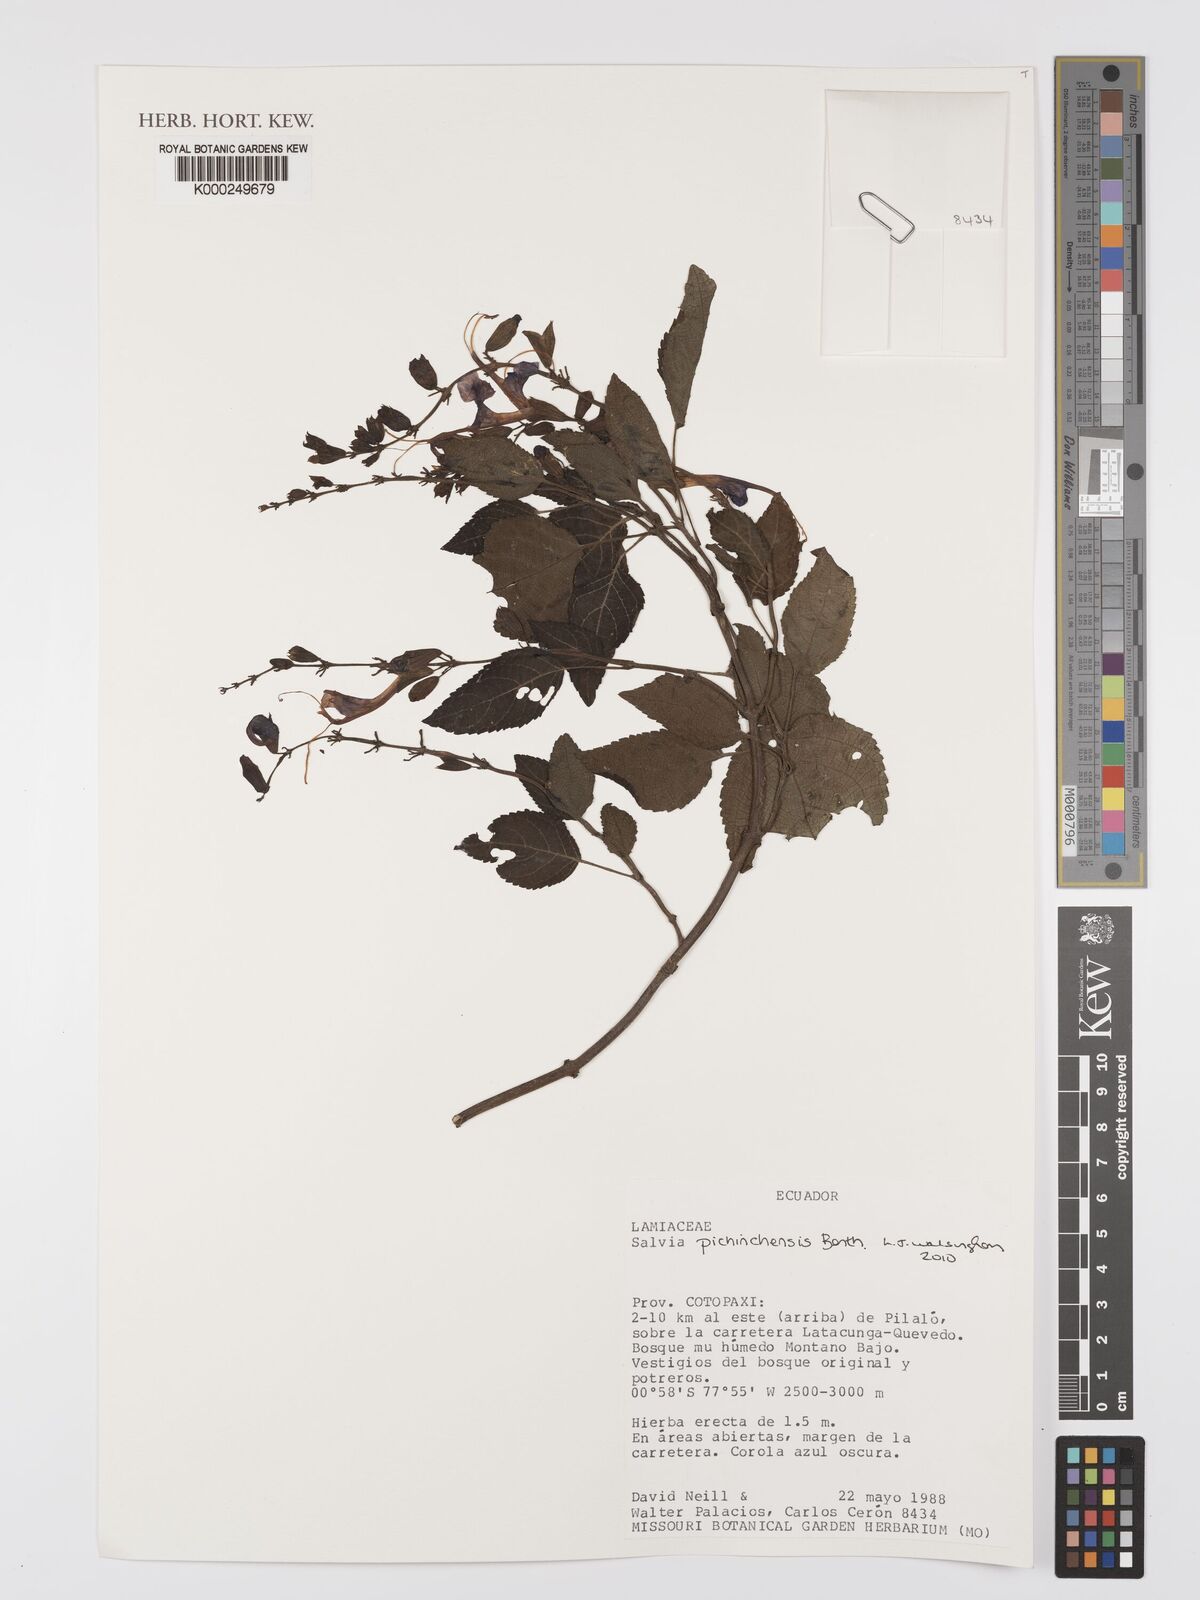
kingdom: Plantae
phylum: Tracheophyta
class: Magnoliopsida
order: Lamiales
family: Lamiaceae
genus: Salvia
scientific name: Salvia pichinchensis
